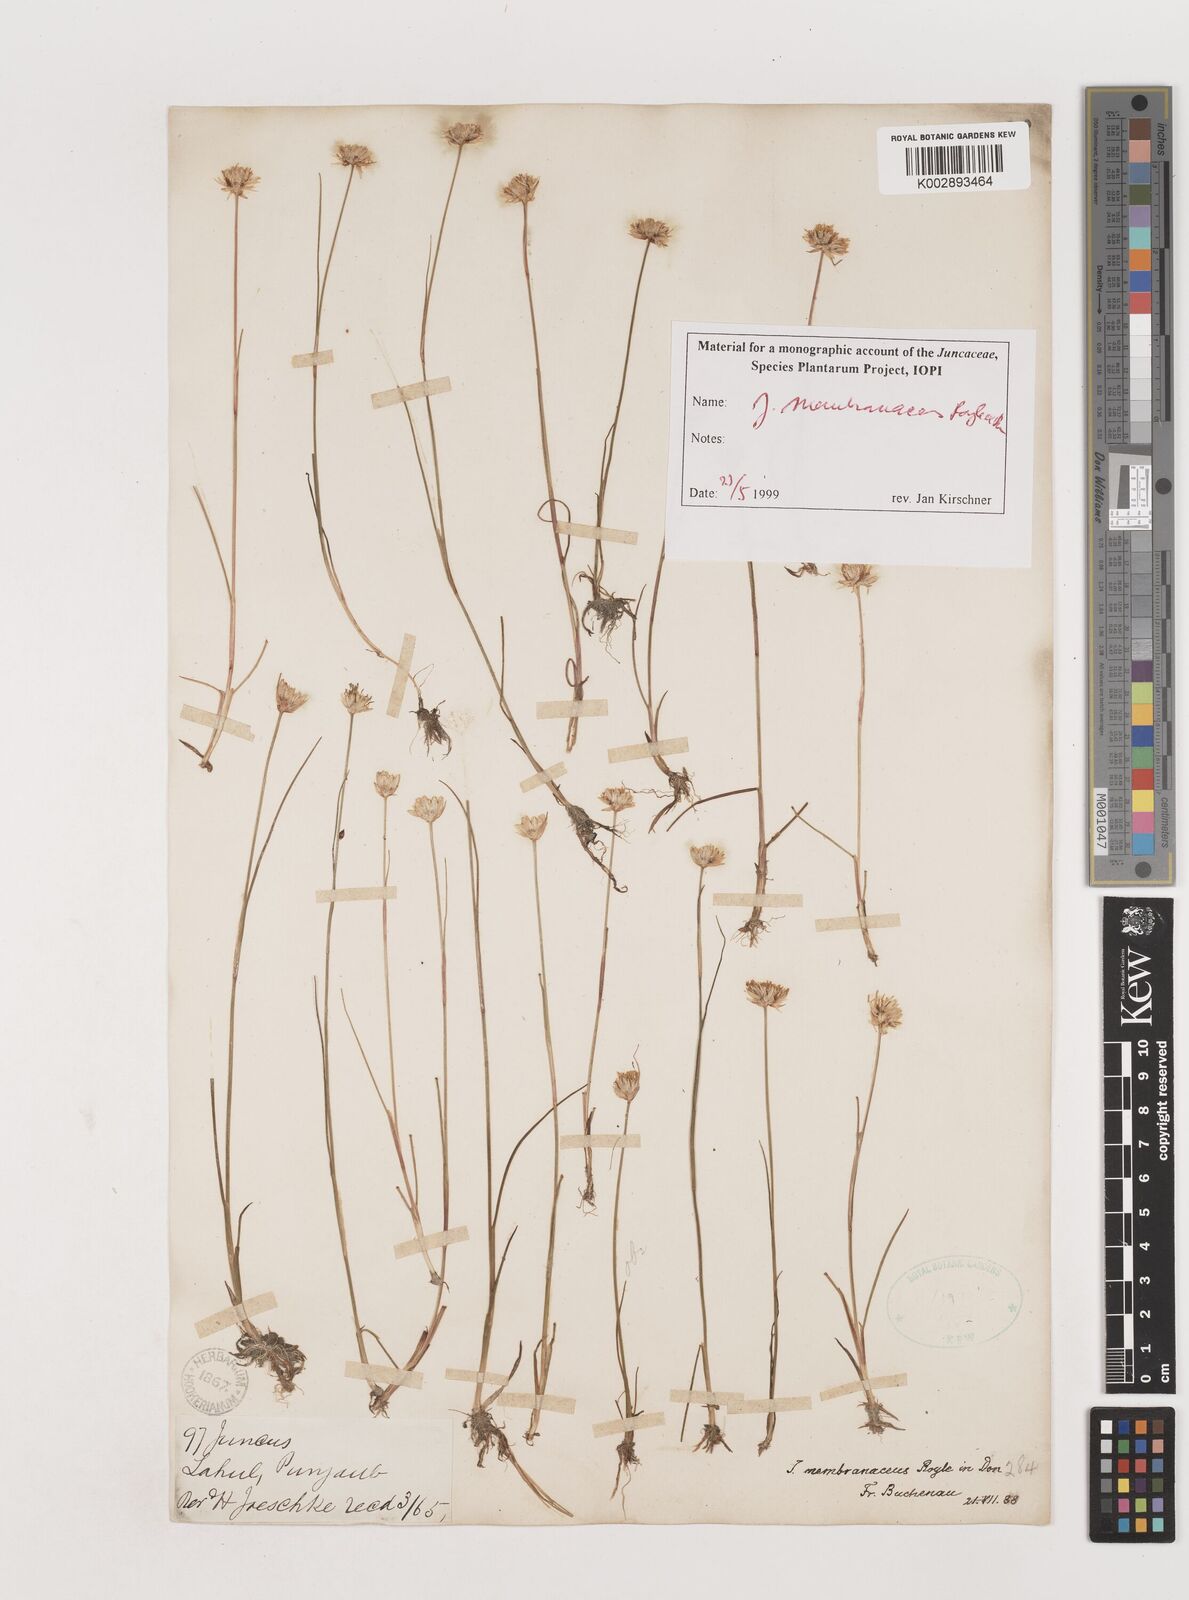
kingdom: Plantae
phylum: Tracheophyta
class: Liliopsida
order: Poales
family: Juncaceae
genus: Juncus
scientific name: Juncus membranaceus
